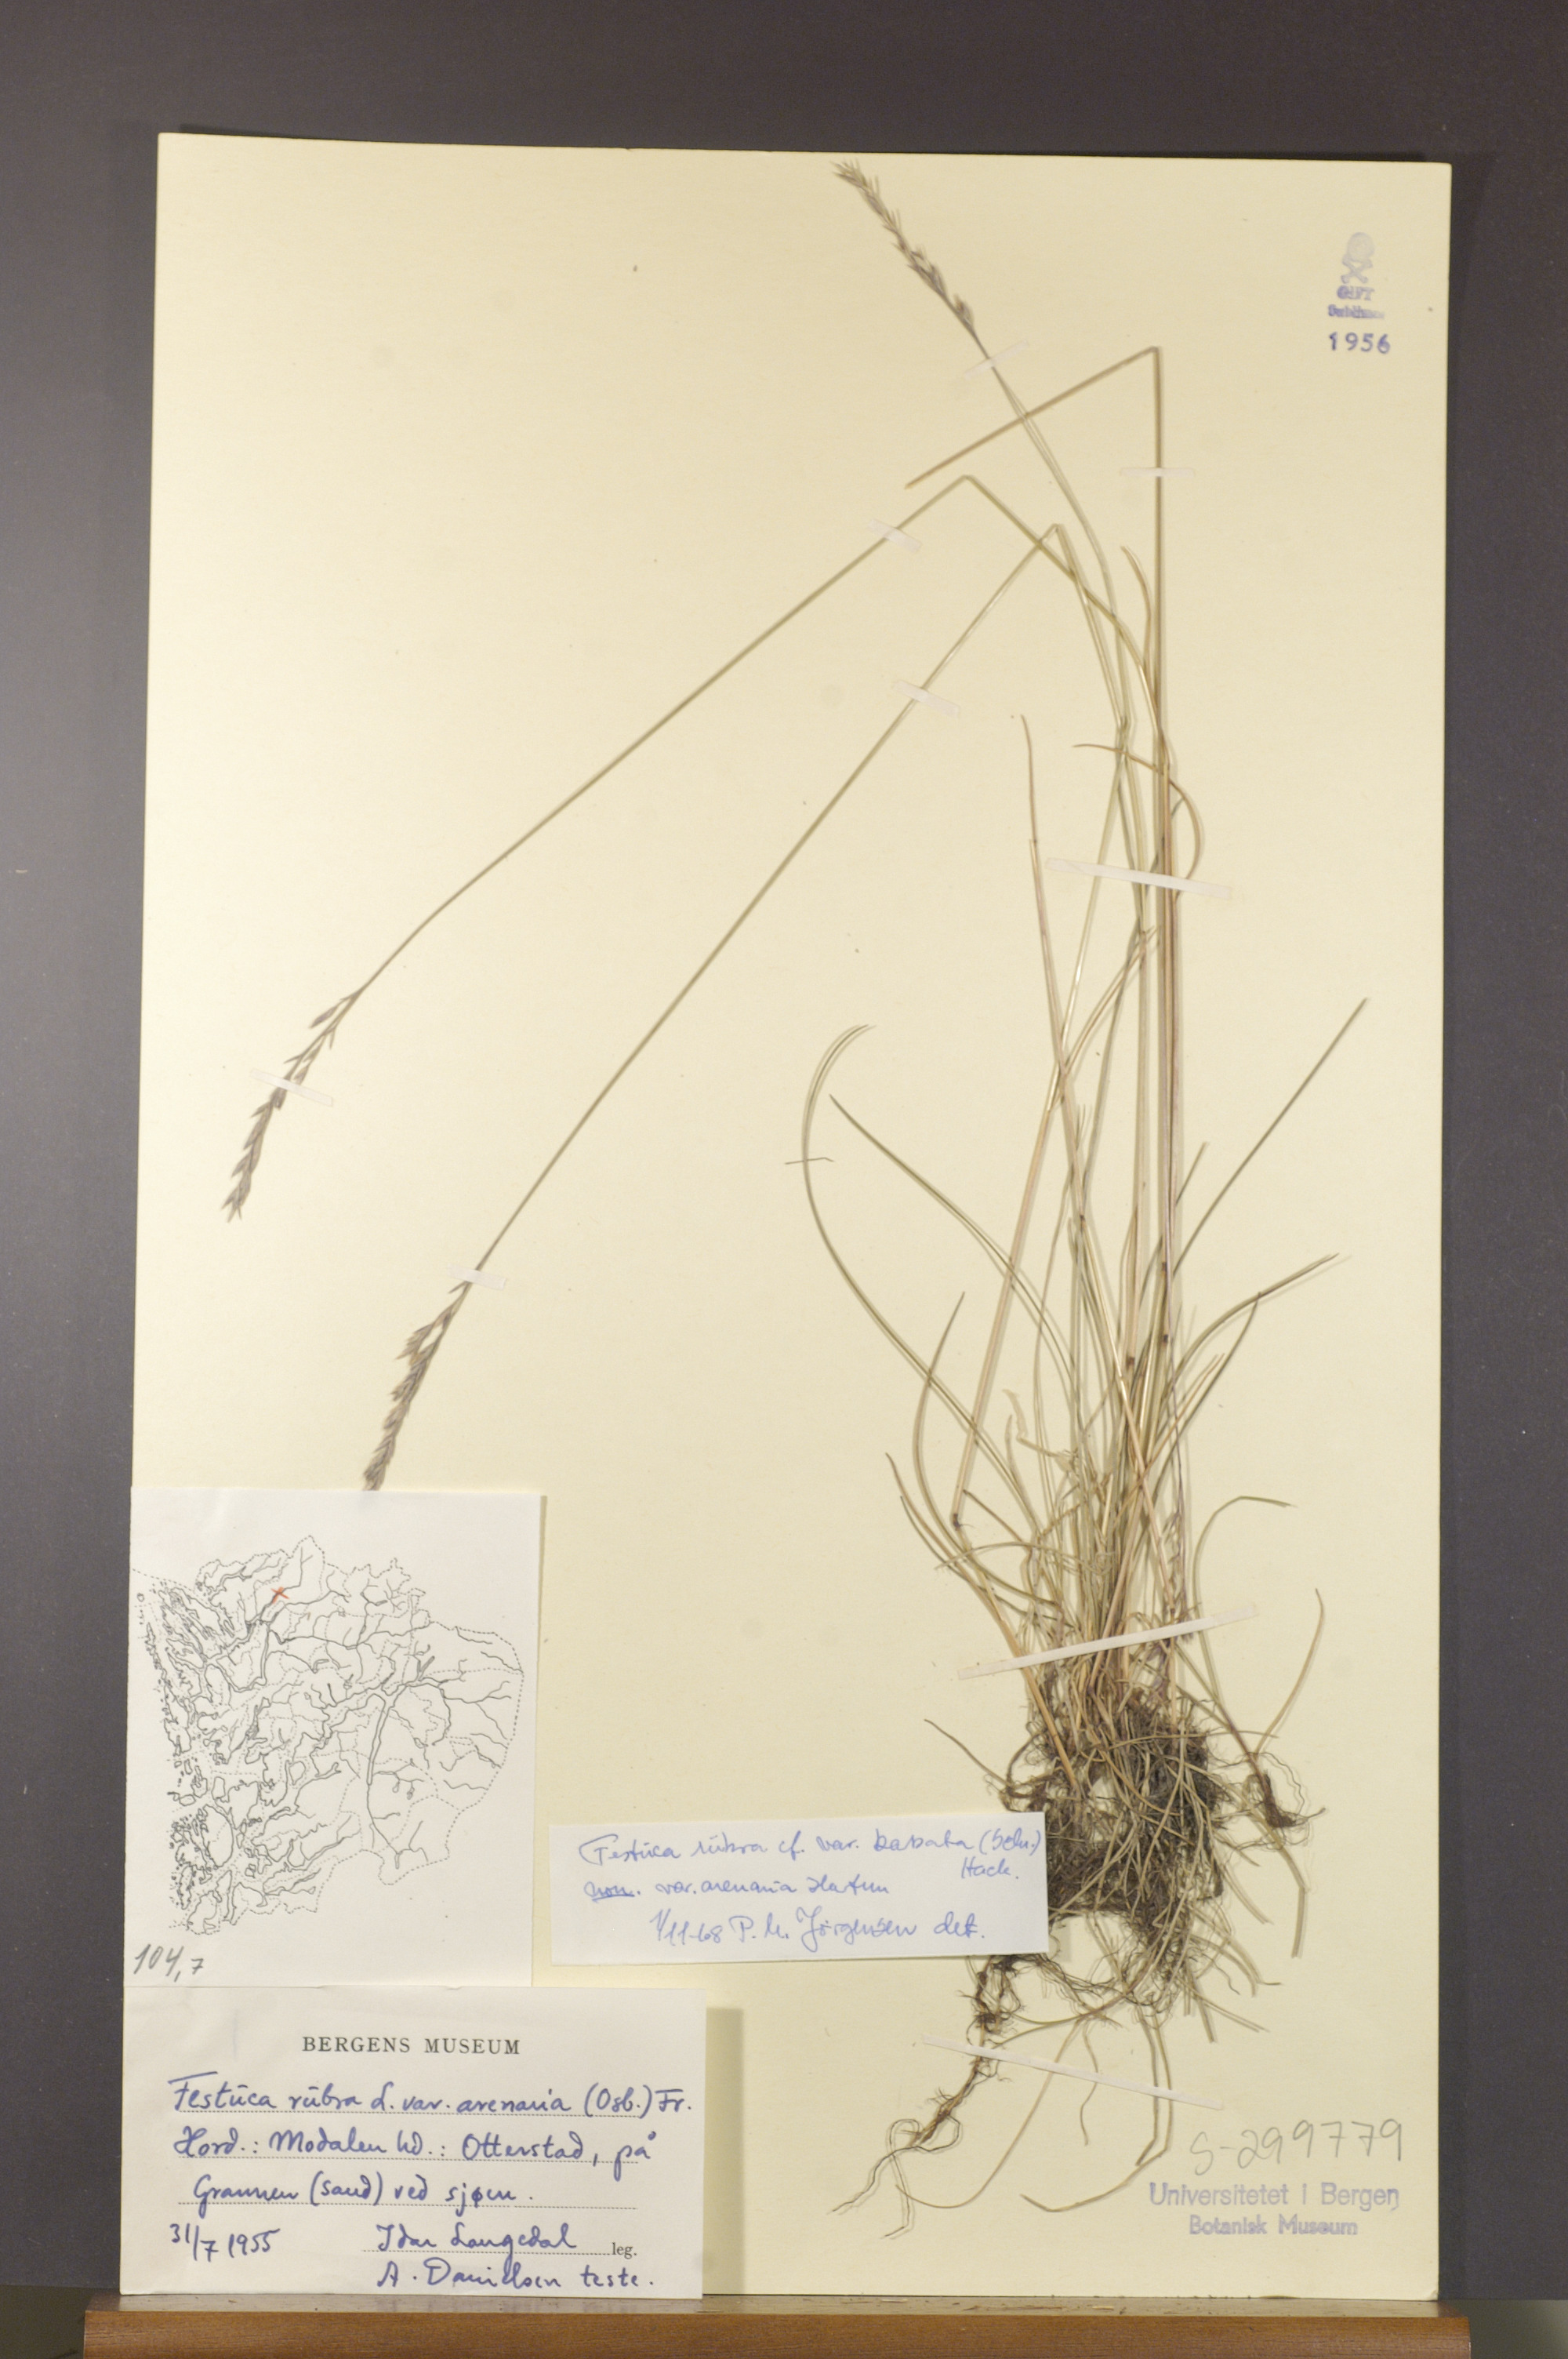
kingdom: Plantae
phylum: Tracheophyta
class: Liliopsida
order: Poales
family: Poaceae
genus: Festuca
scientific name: Festuca rubra
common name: Red fescue
